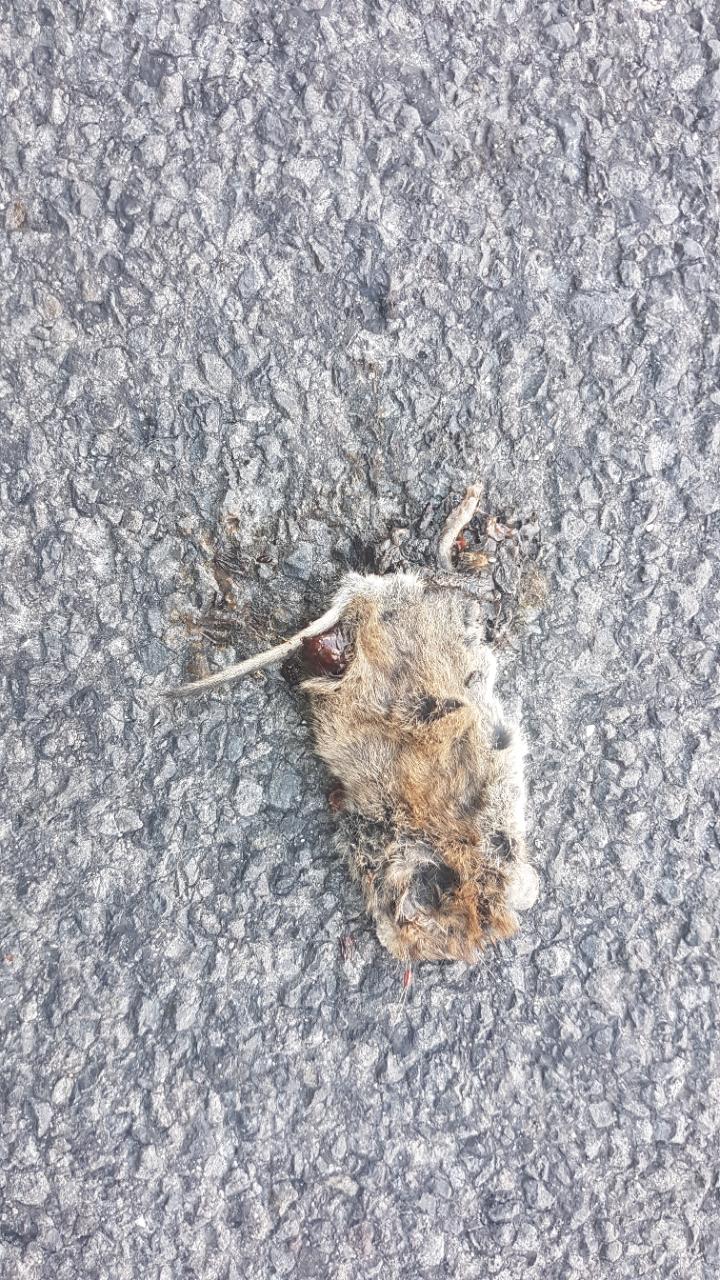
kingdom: Animalia
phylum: Chordata
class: Mammalia
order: Rodentia
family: Cricetidae
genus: Myodes
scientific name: Myodes glareolus
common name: Bank vole
